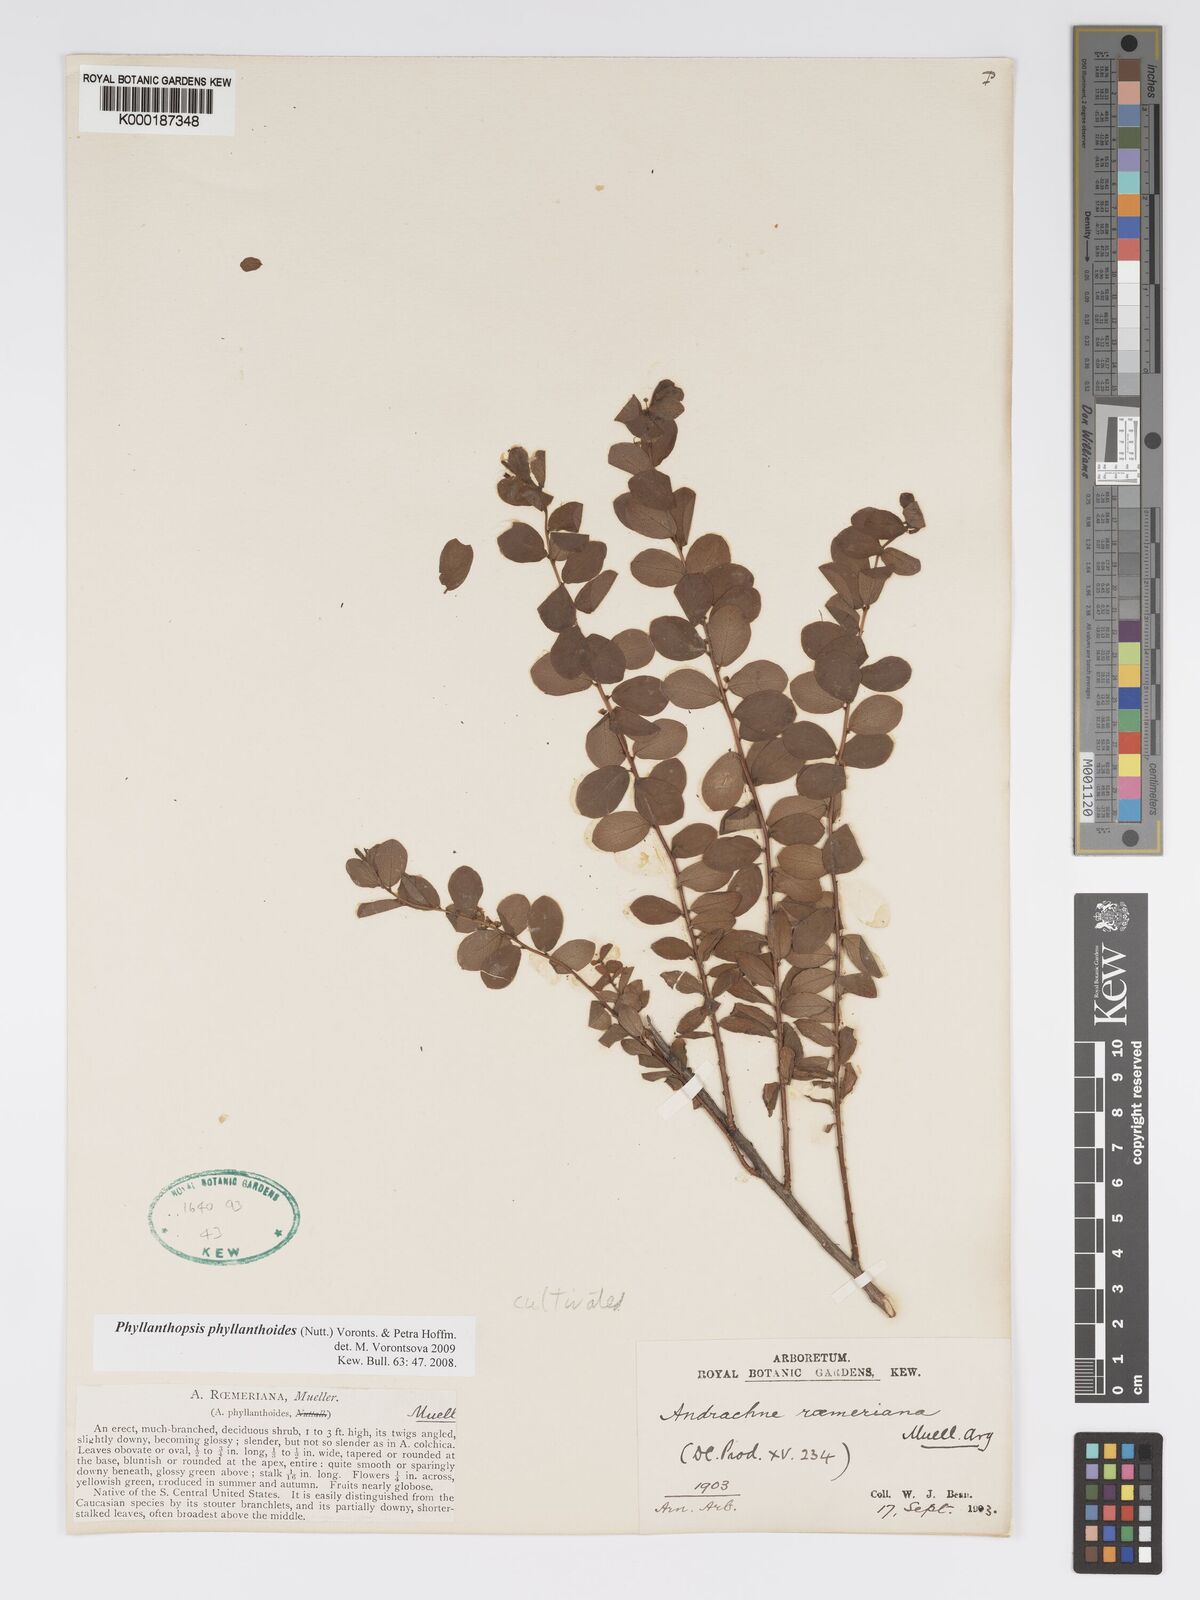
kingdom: Plantae
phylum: Tracheophyta
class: Magnoliopsida
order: Malpighiales
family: Phyllanthaceae
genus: Andrachne
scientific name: Andrachne
